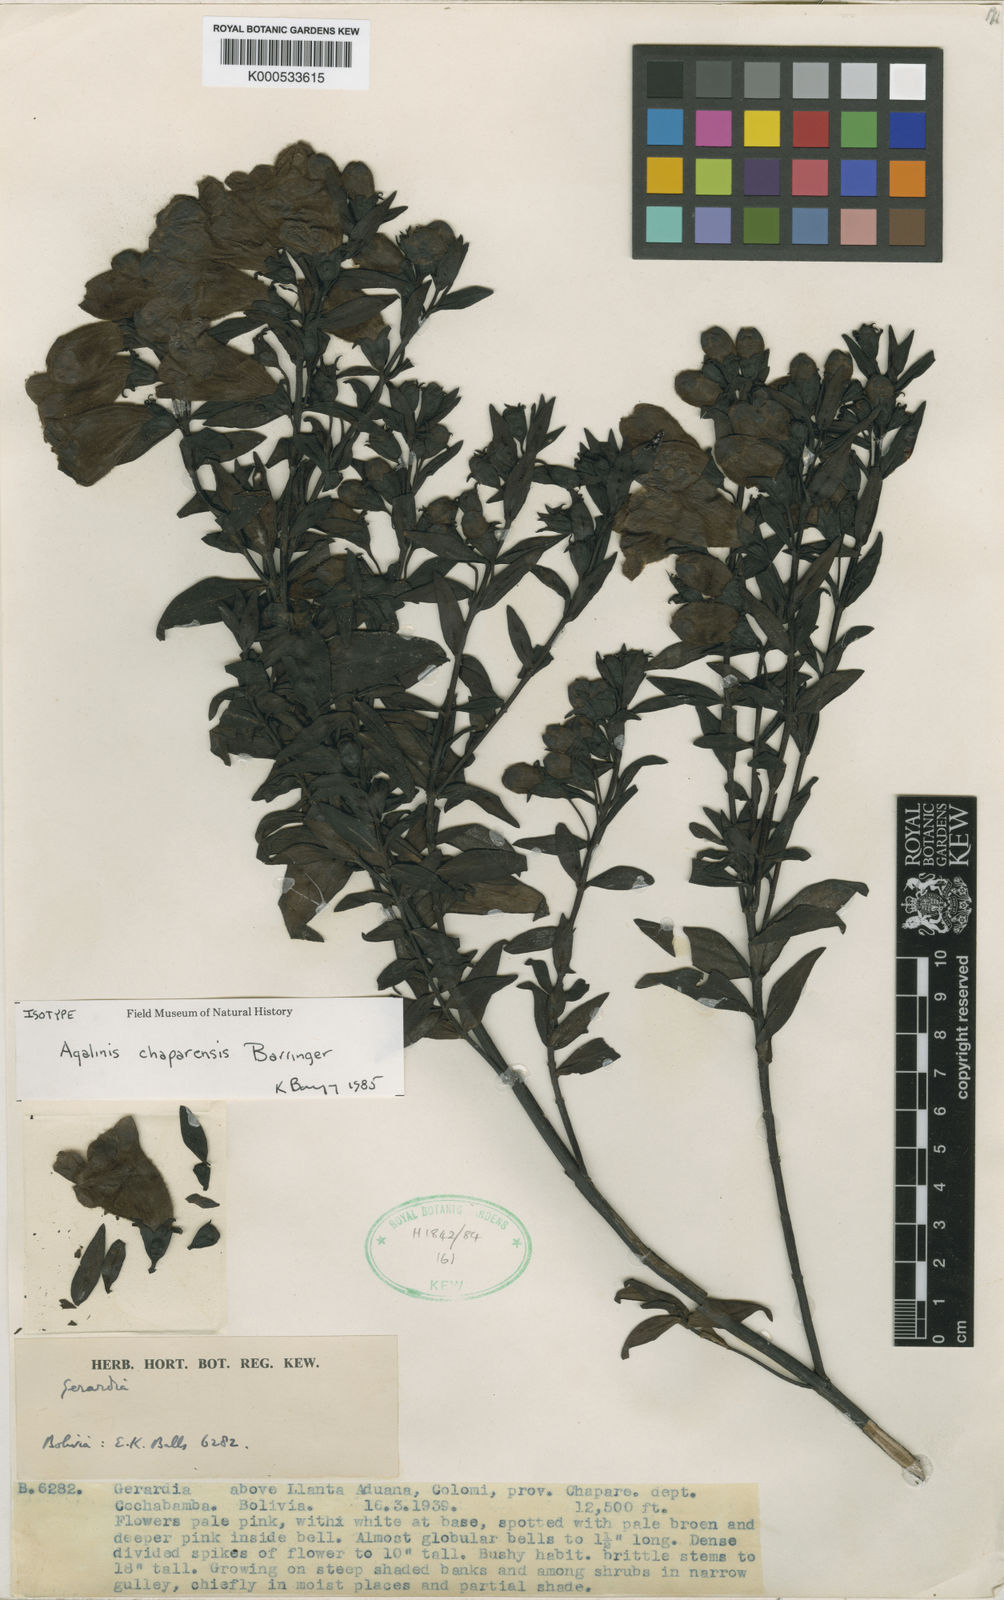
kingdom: Plantae
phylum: Tracheophyta
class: Magnoliopsida
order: Lamiales
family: Orobanchaceae
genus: Agalinis
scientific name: Agalinis chaparensis
